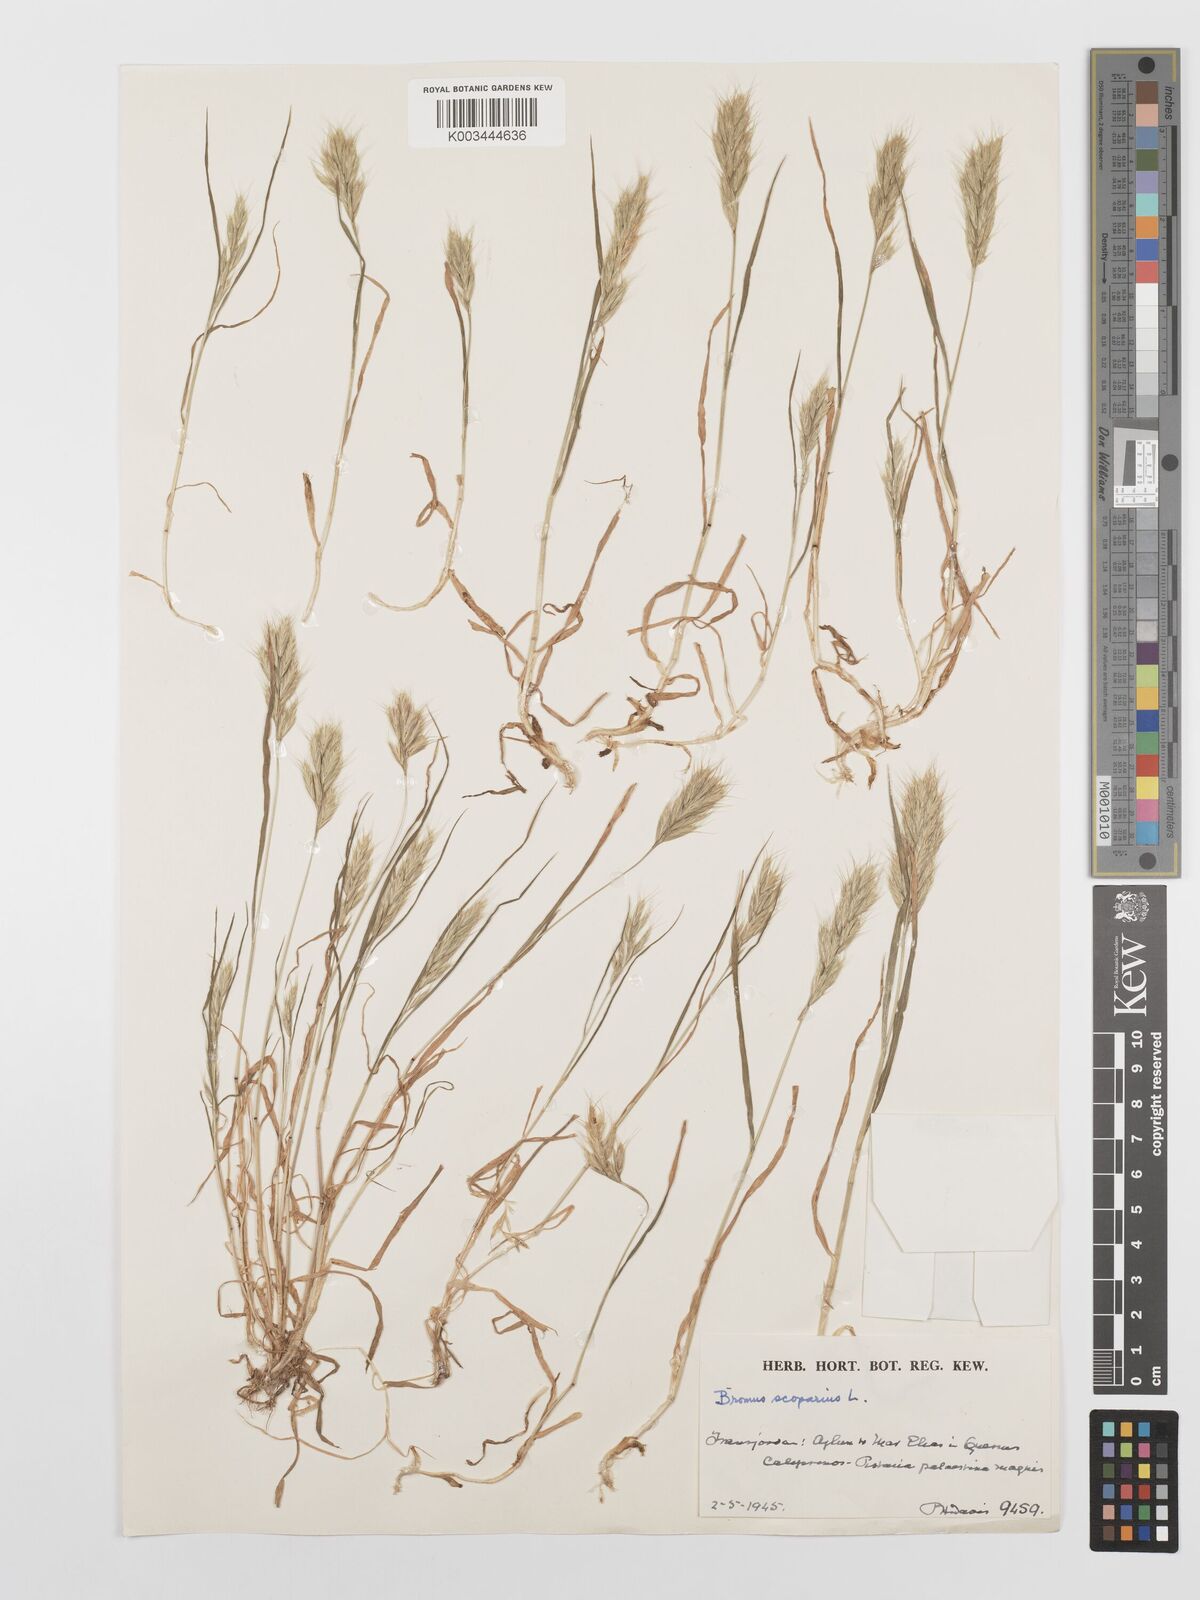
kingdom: Plantae
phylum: Tracheophyta
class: Liliopsida
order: Poales
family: Poaceae
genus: Bromus
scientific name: Bromus scoparius
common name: Broom brome
